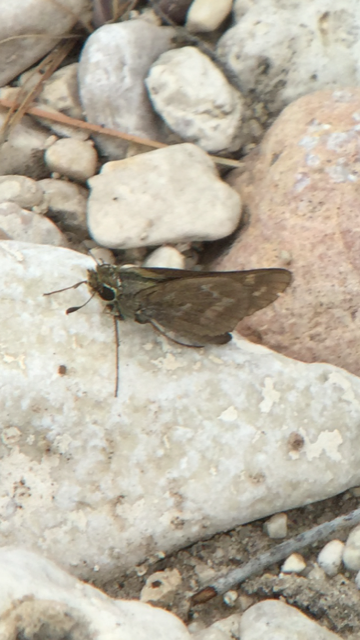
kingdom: Animalia
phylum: Arthropoda
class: Insecta
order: Lepidoptera
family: Hesperiidae
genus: Atalopedes
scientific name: Atalopedes campestris
